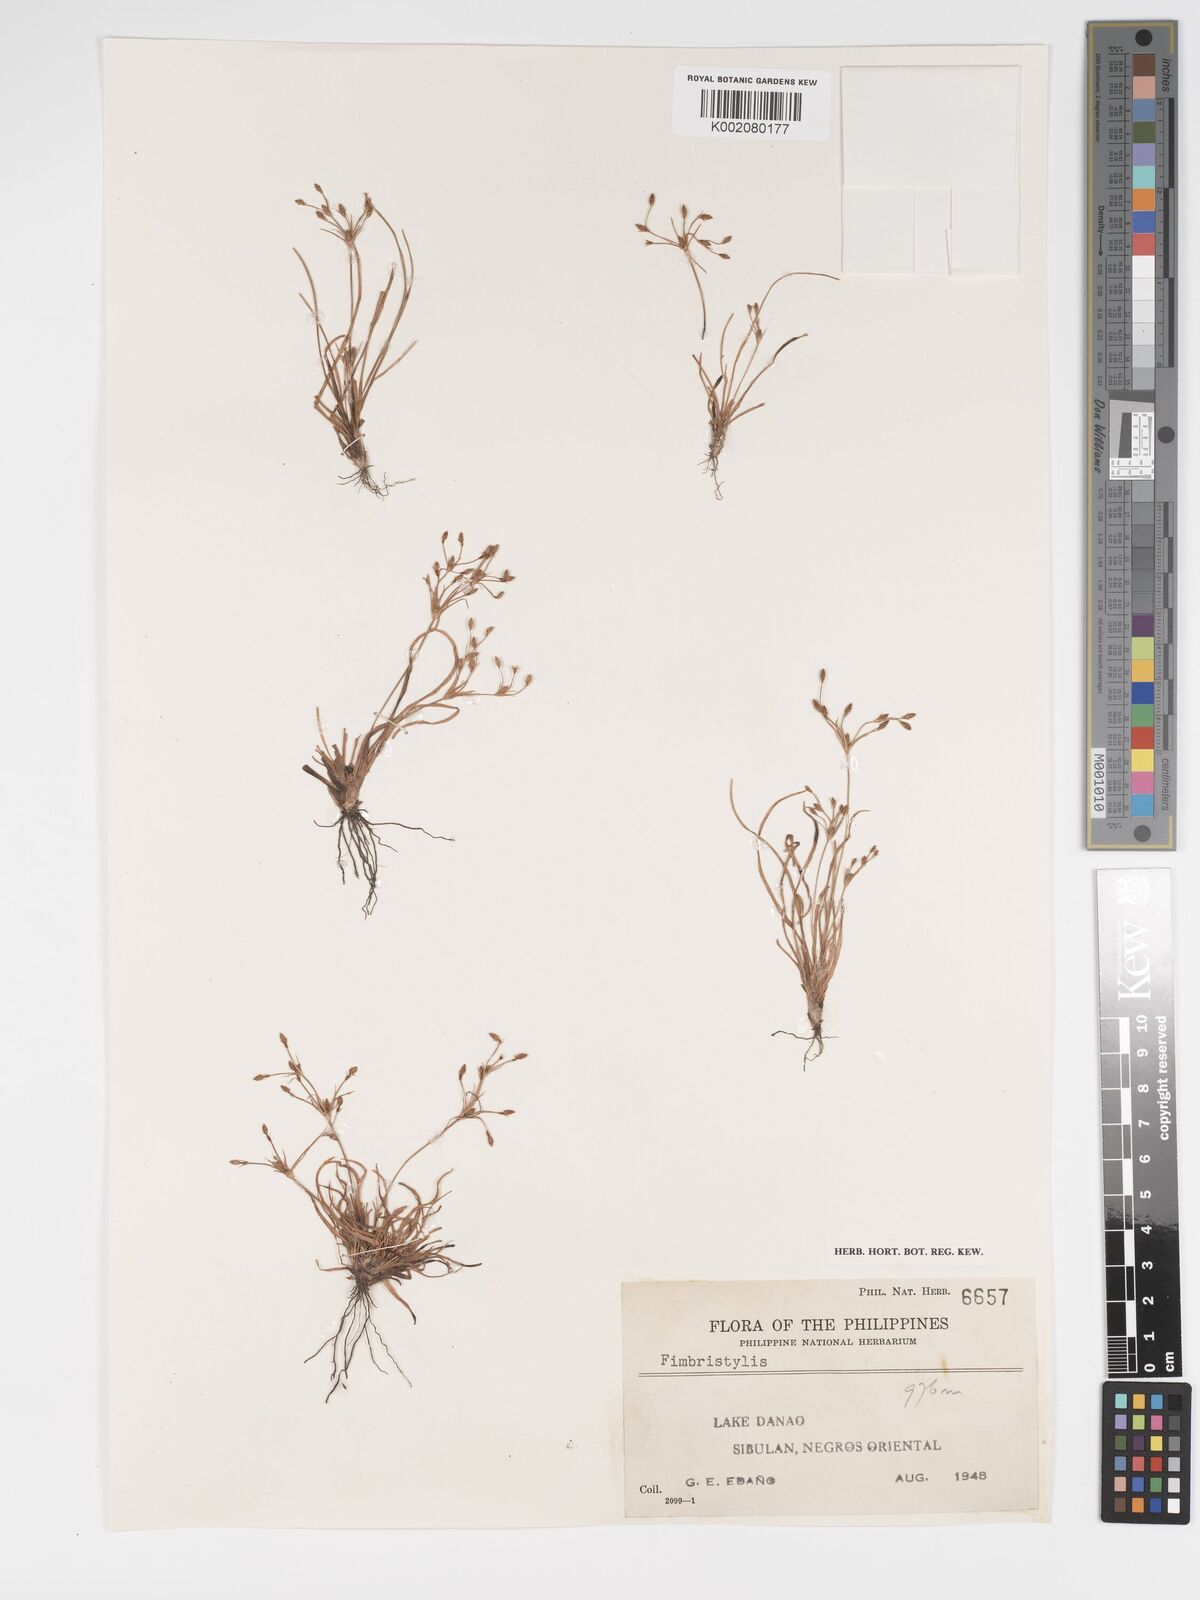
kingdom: Plantae
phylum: Tracheophyta
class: Liliopsida
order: Poales
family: Cyperaceae
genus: Fimbristylis
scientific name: Fimbristylis
